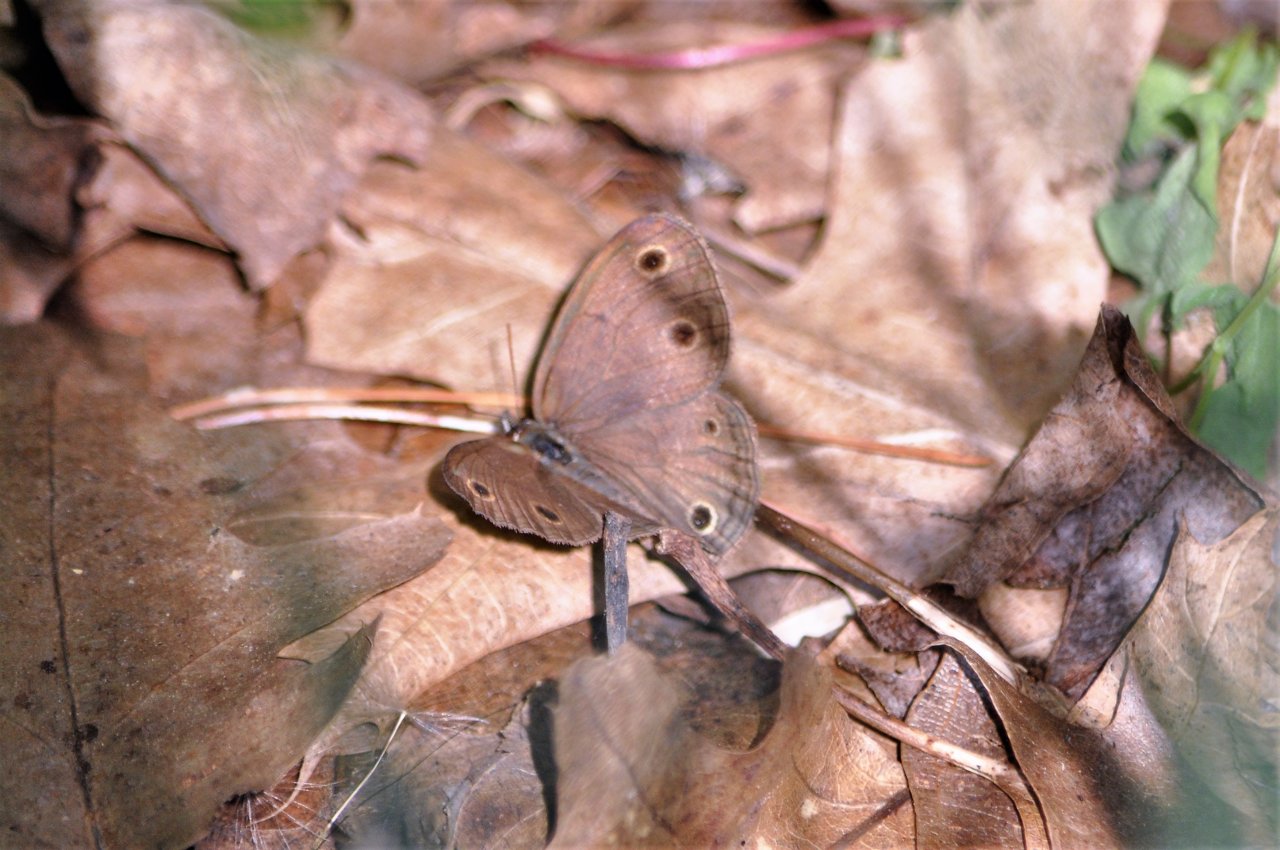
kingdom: Animalia
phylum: Arthropoda
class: Insecta
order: Lepidoptera
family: Nymphalidae
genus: Euptychia
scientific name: Euptychia cymela
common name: Little Wood Satyr
